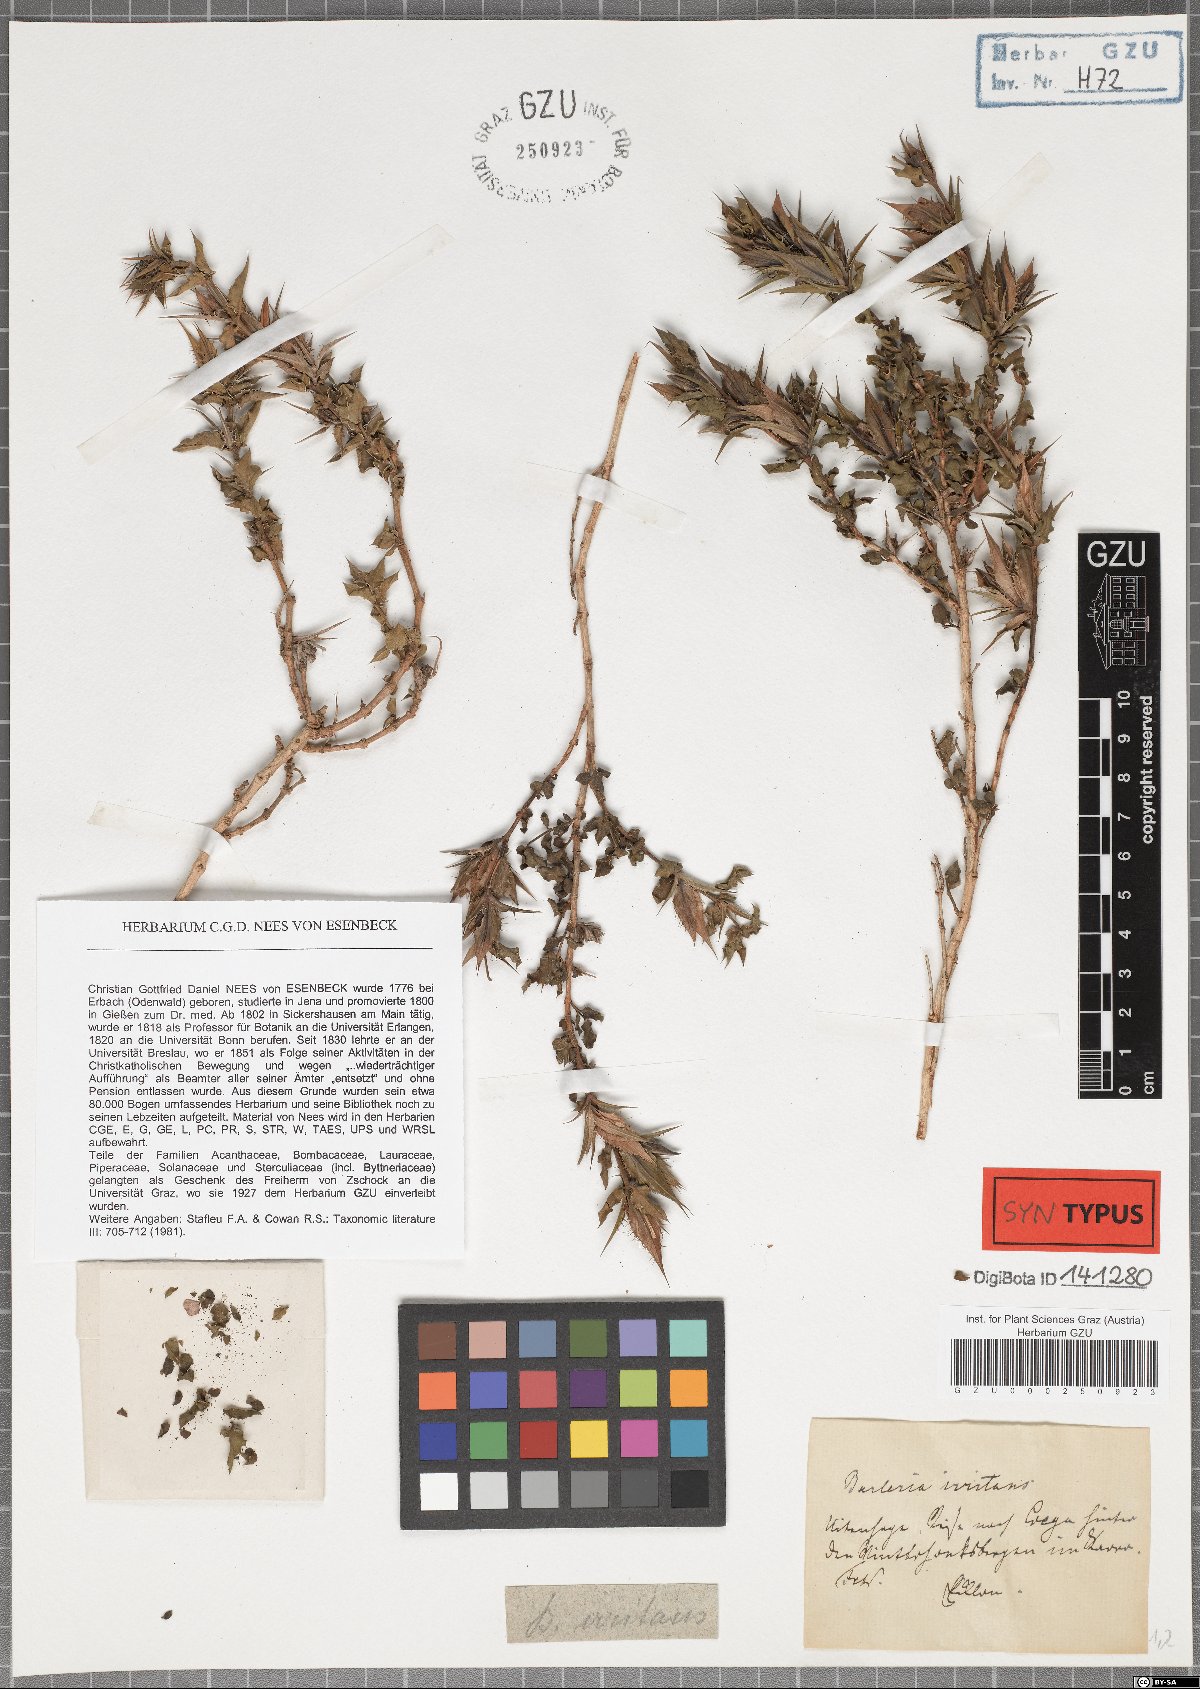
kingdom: Plantae
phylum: Tracheophyta
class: Magnoliopsida
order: Lamiales
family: Acanthaceae
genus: Barleria
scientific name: Barleria irritans
